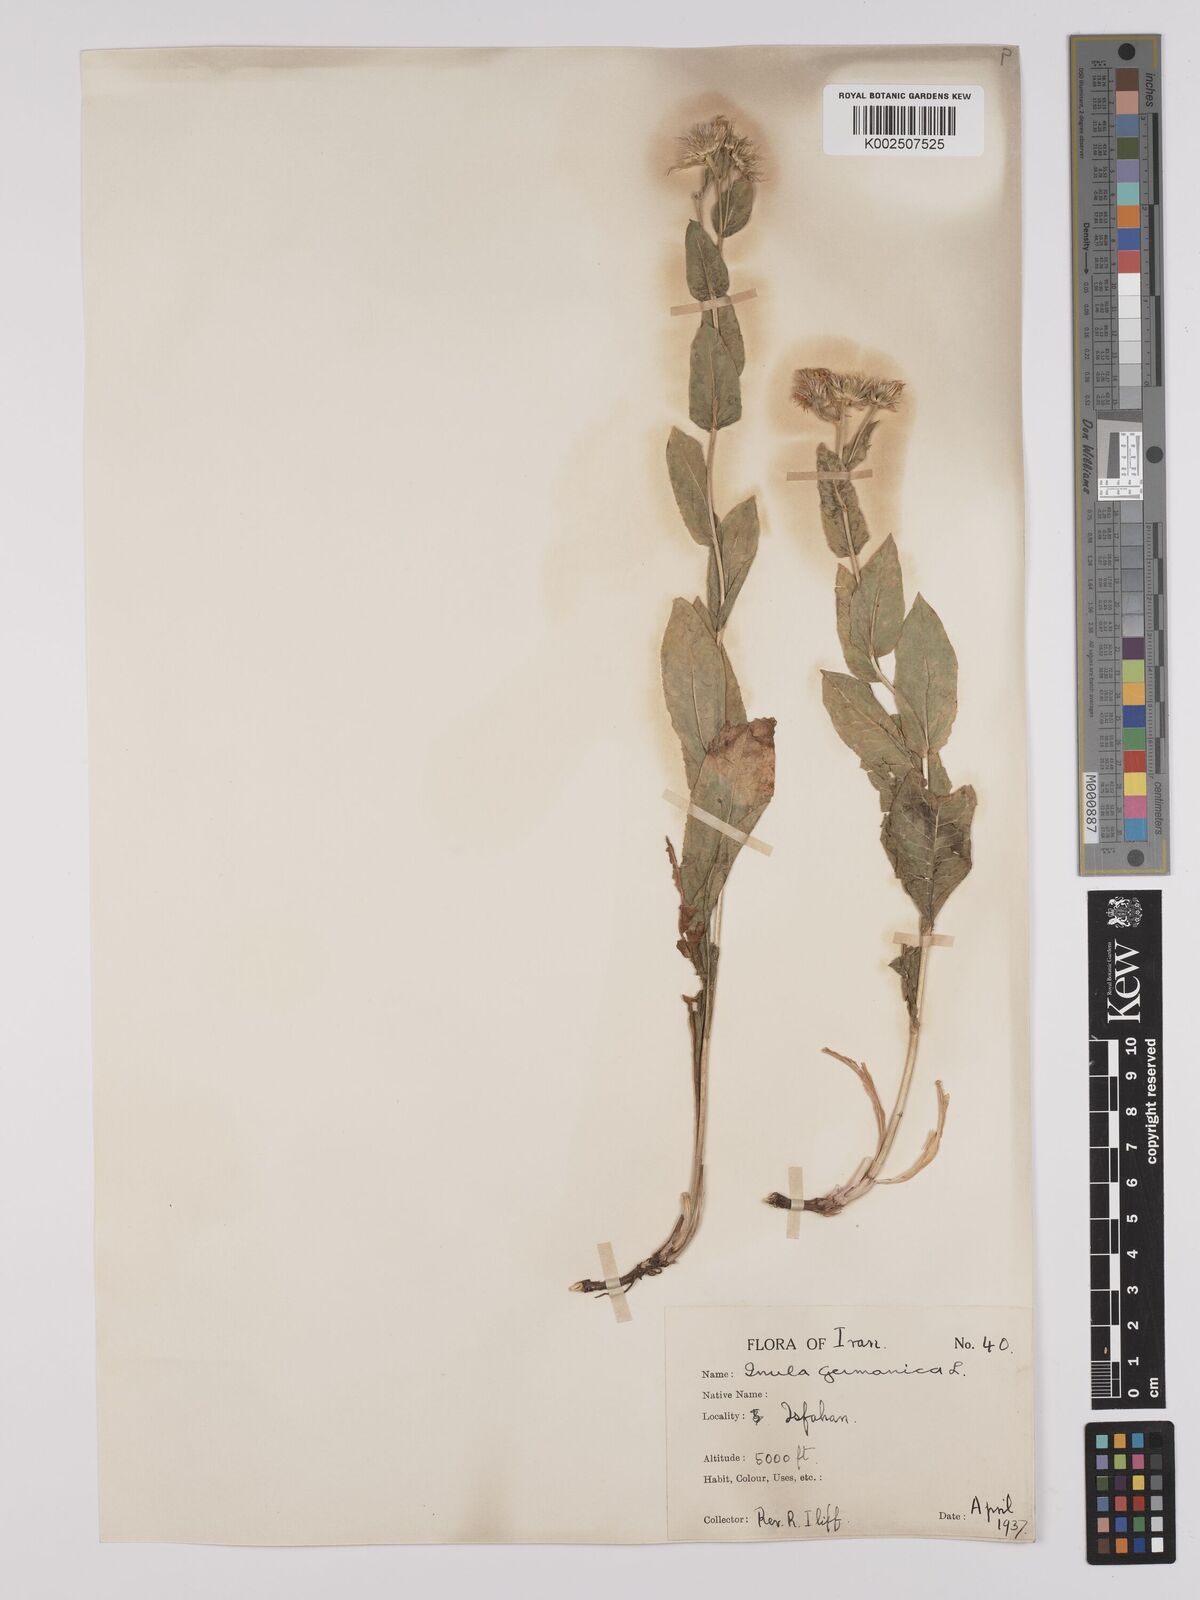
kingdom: Plantae
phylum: Tracheophyta
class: Magnoliopsida
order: Asterales
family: Asteraceae
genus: Pentanema
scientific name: Pentanema spiraeifolium
